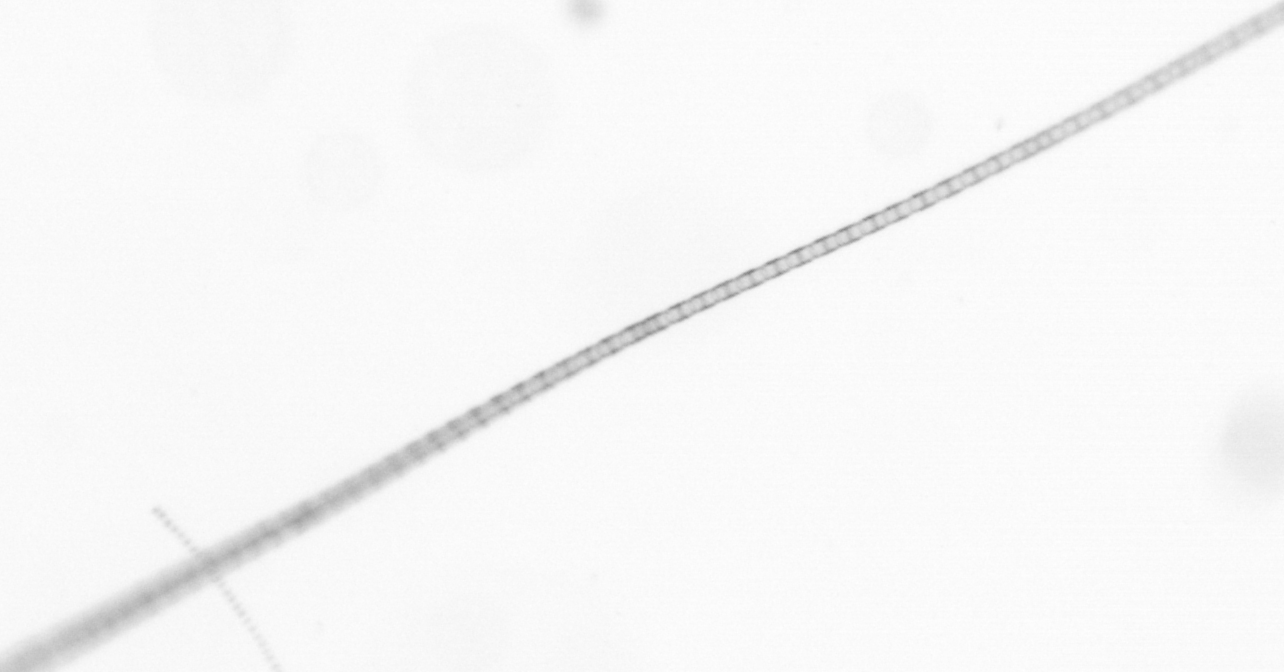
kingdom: Chromista
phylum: Ochrophyta
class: Bacillariophyceae
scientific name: Bacillariophyceae
